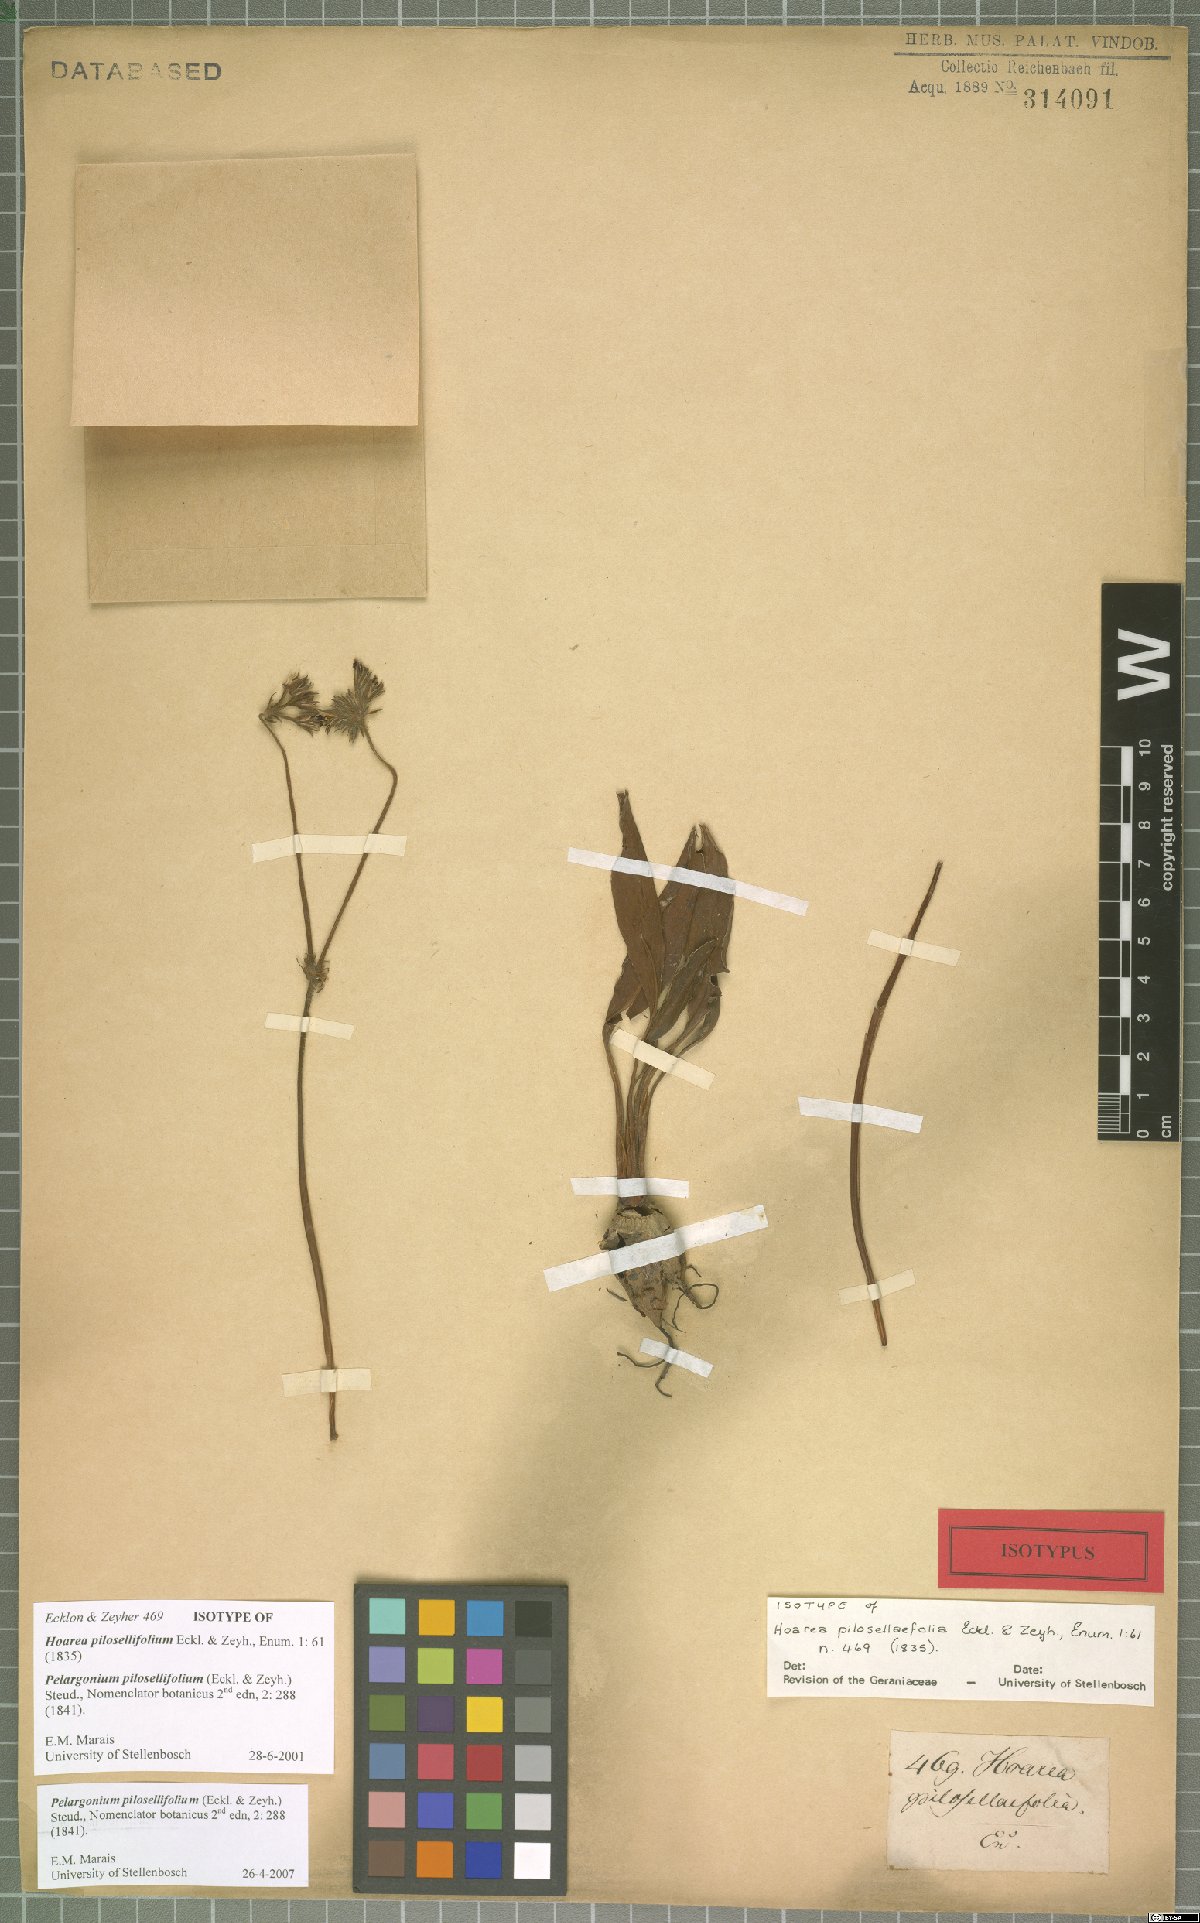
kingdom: Plantae
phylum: Tracheophyta
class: Magnoliopsida
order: Geraniales
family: Geraniaceae
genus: Pelargonium
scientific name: Pelargonium pilosellifolium
